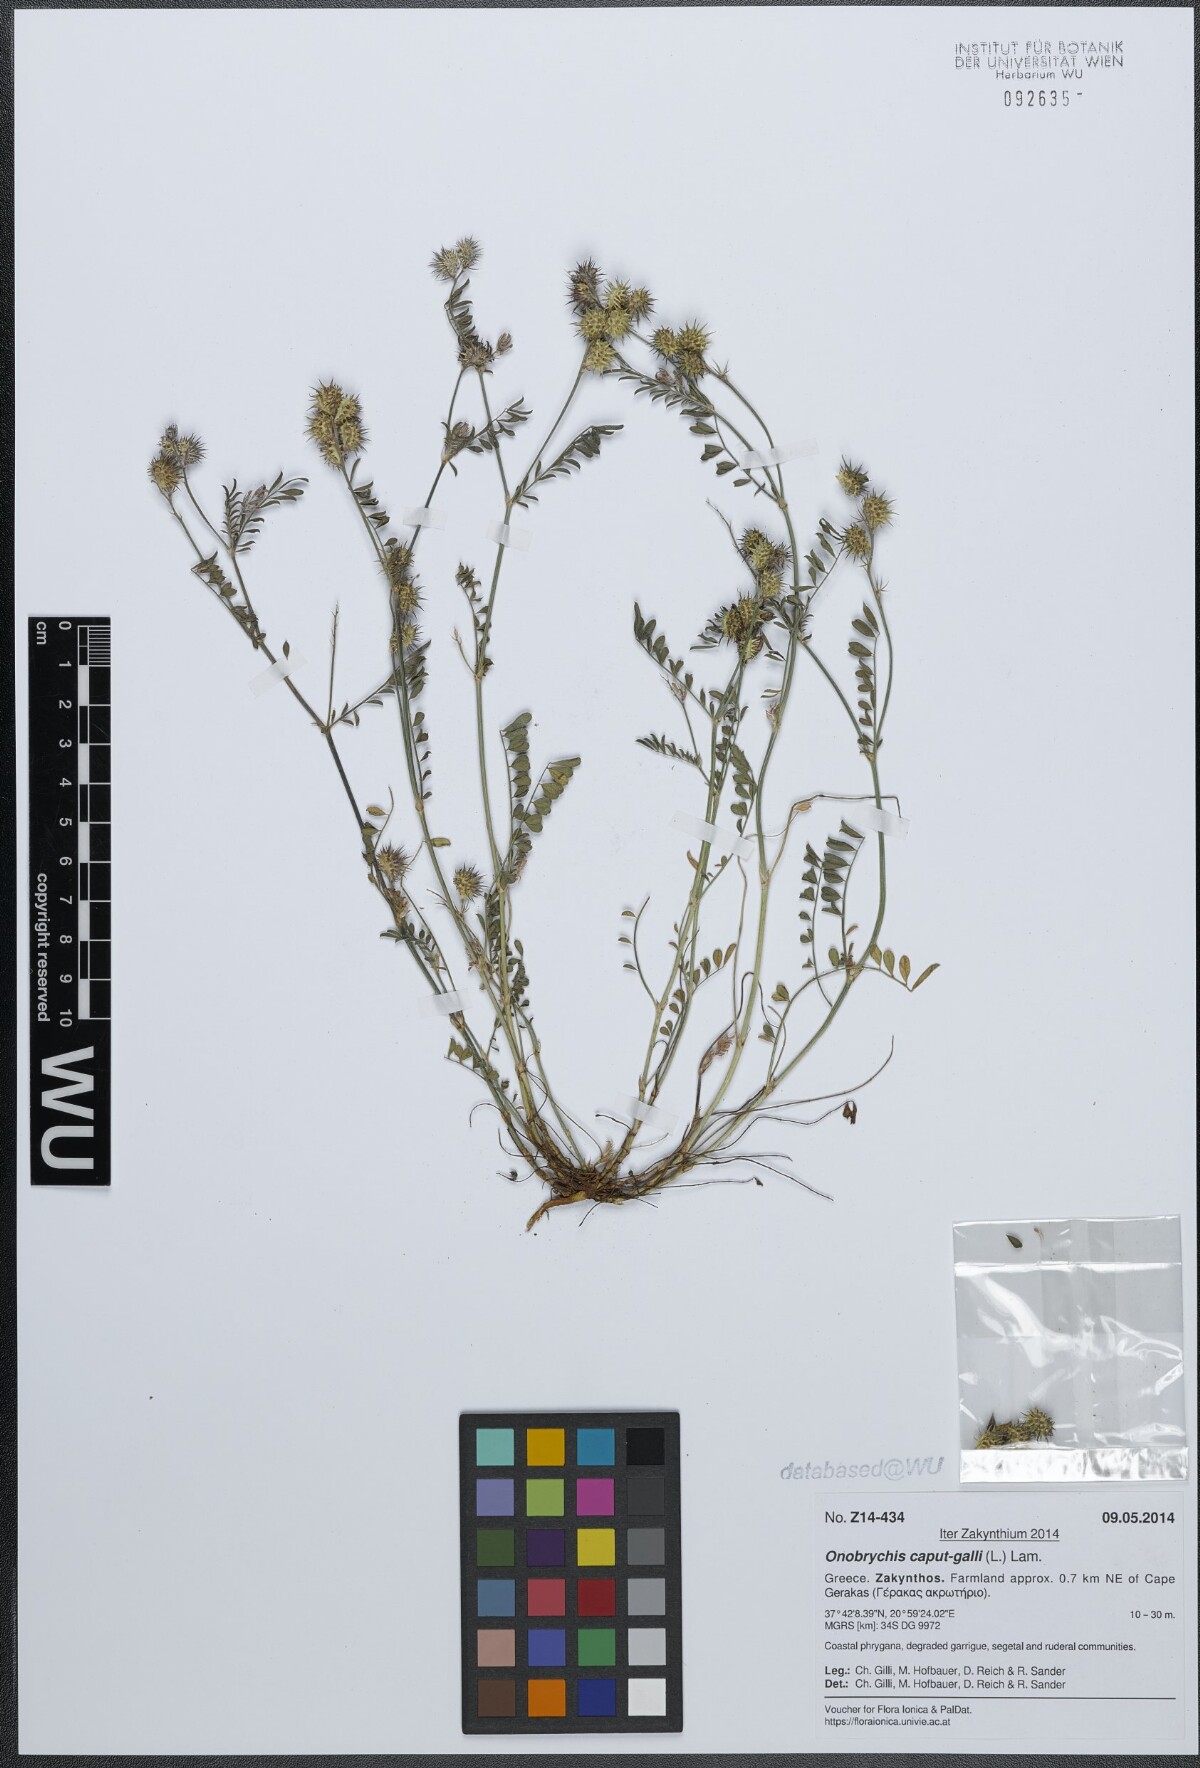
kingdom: Plantae
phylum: Tracheophyta
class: Magnoliopsida
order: Fabales
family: Fabaceae
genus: Onobrychis
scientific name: Onobrychis caput-galli
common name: Cockscomb sainfoin
